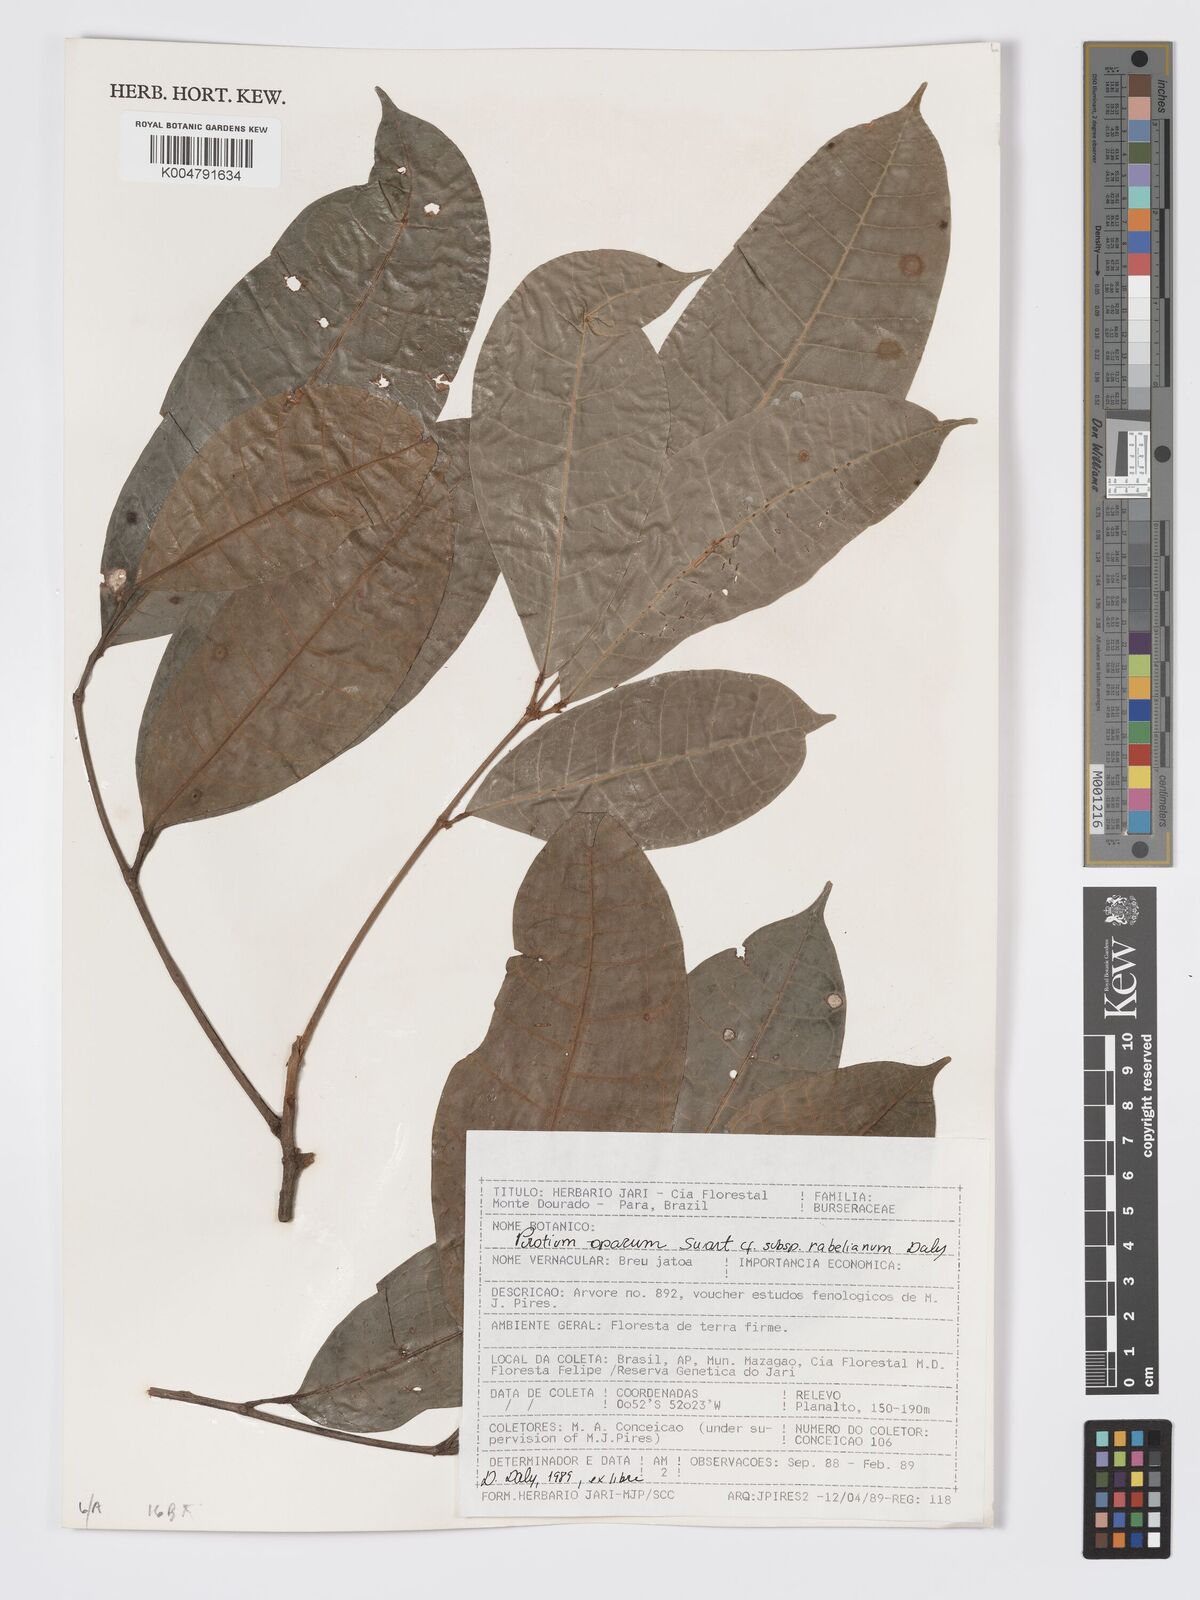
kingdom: Plantae
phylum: Tracheophyta
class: Magnoliopsida
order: Sapindales
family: Burseraceae
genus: Protium
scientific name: Protium opacum
